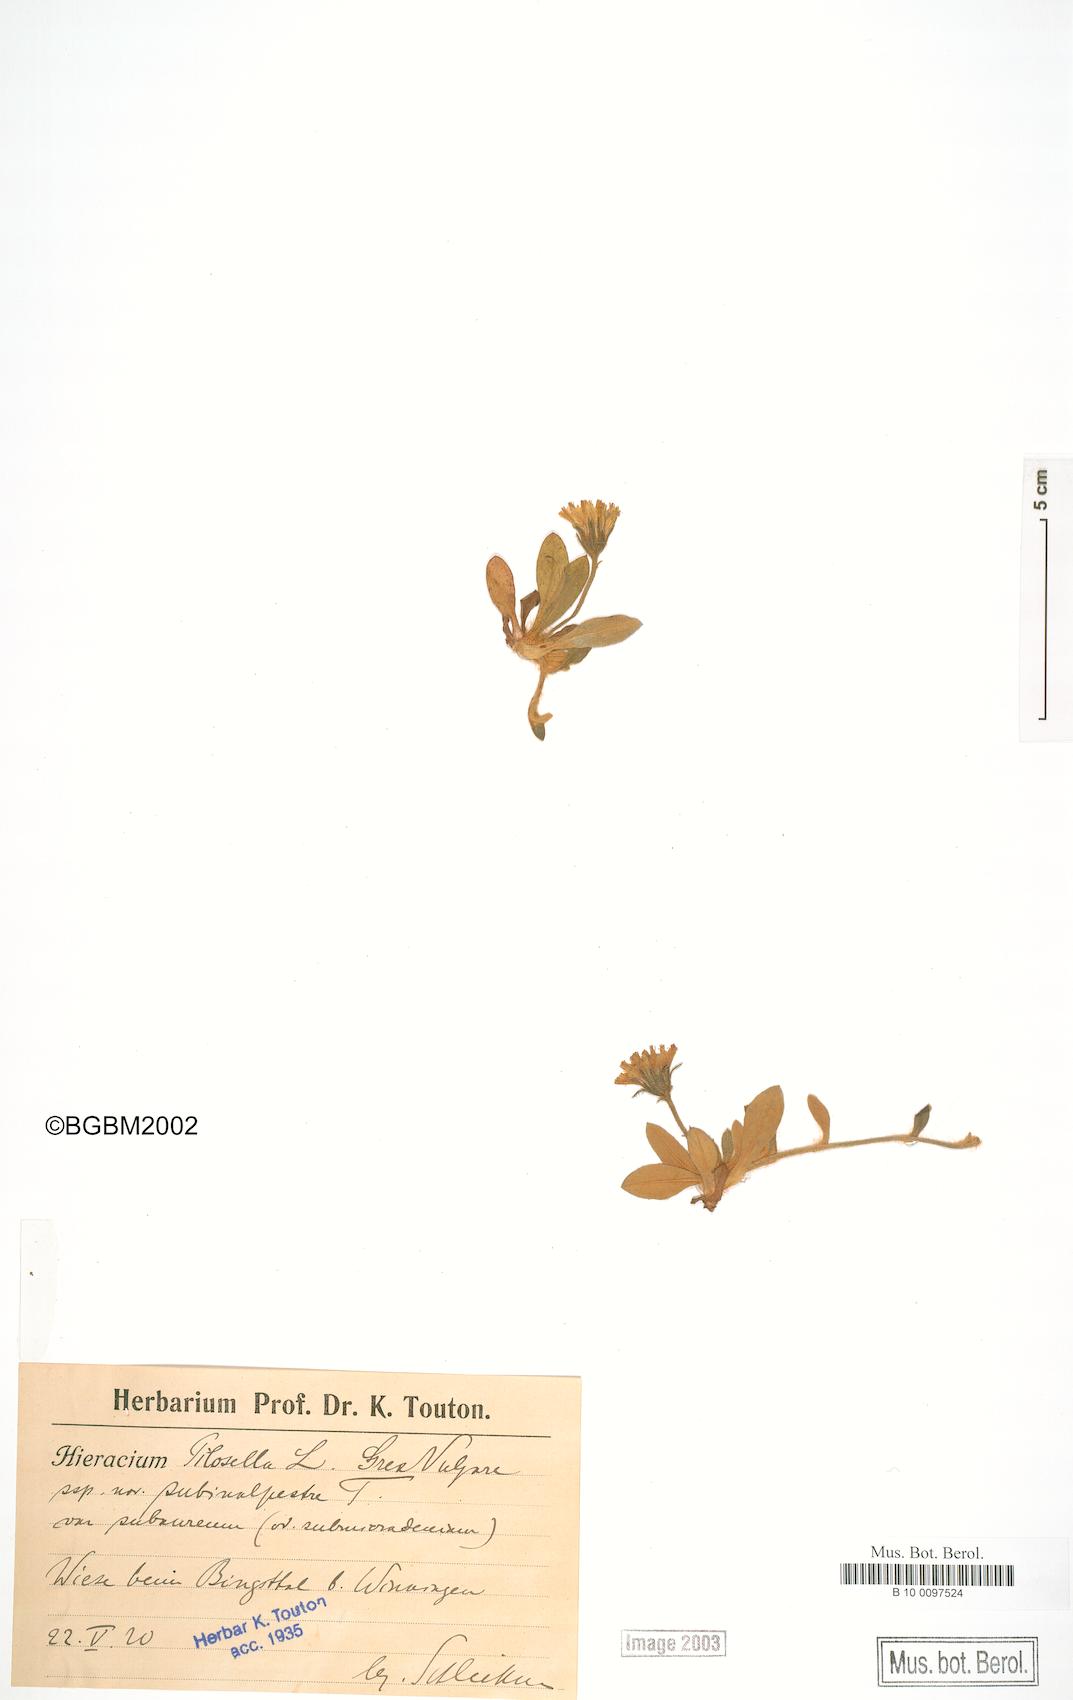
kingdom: Plantae
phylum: Tracheophyta
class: Magnoliopsida
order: Asterales
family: Asteraceae
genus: Pilosella
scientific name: Pilosella officinarum
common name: Mouse-ear hawkweed
